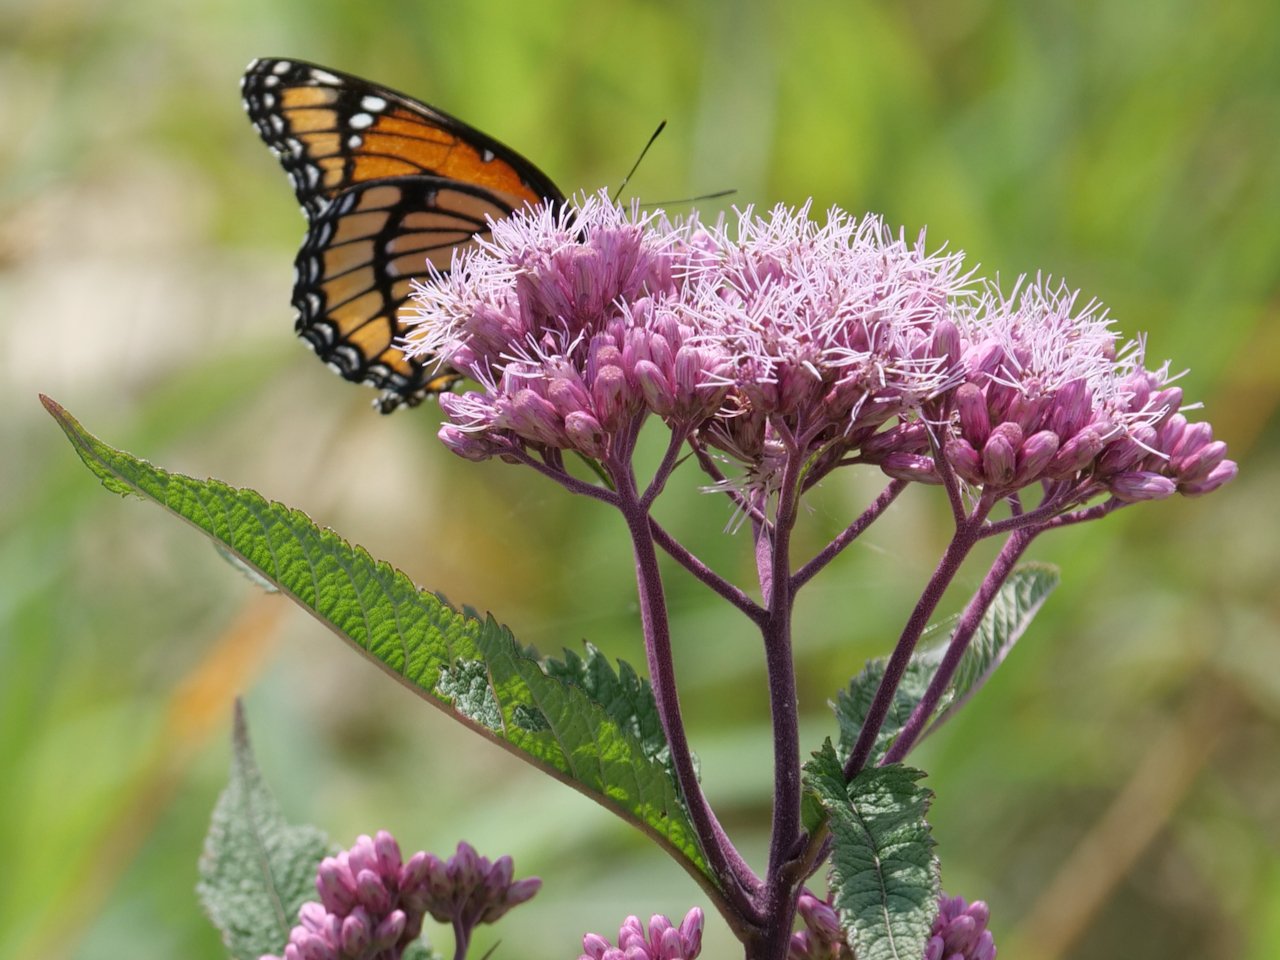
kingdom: Animalia
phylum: Arthropoda
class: Insecta
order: Lepidoptera
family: Nymphalidae
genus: Limenitis
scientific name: Limenitis archippus
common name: Viceroy
